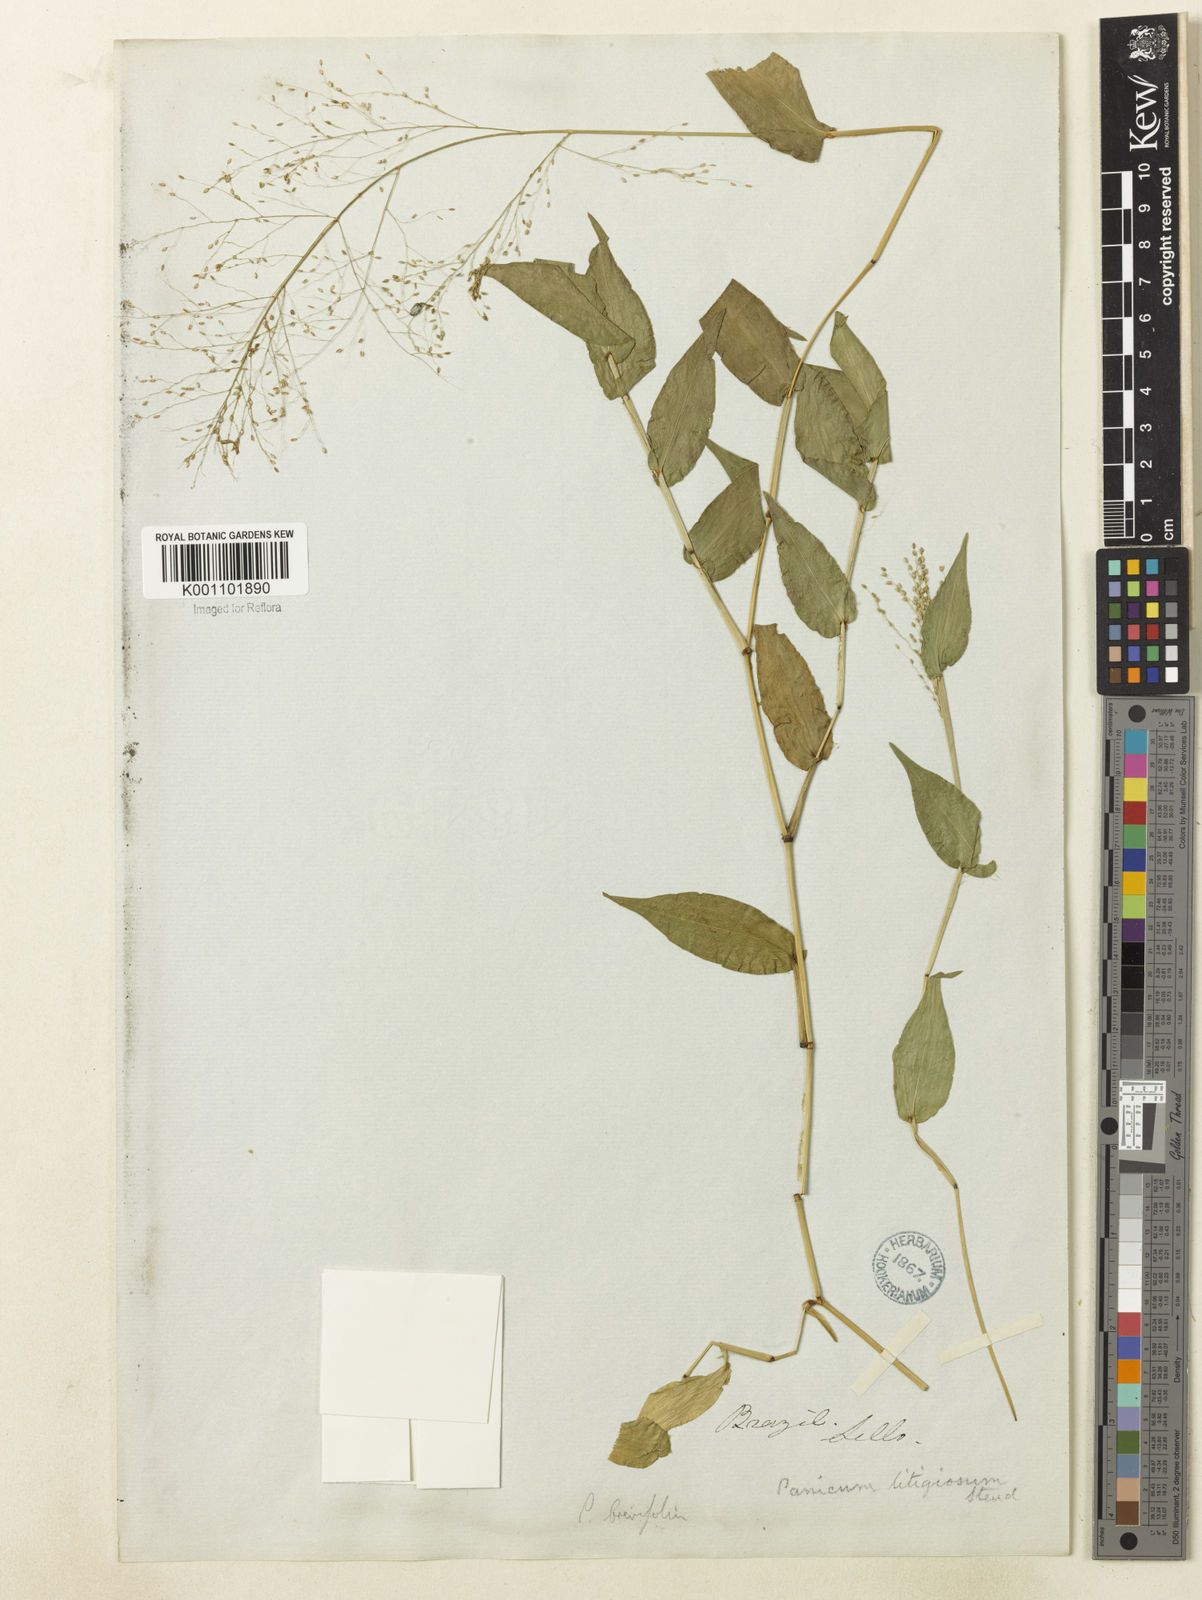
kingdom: Plantae
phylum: Tracheophyta
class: Liliopsida
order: Poales
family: Poaceae
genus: Panicum
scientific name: Panicum brevifolium
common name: Shortleaf panic grass
